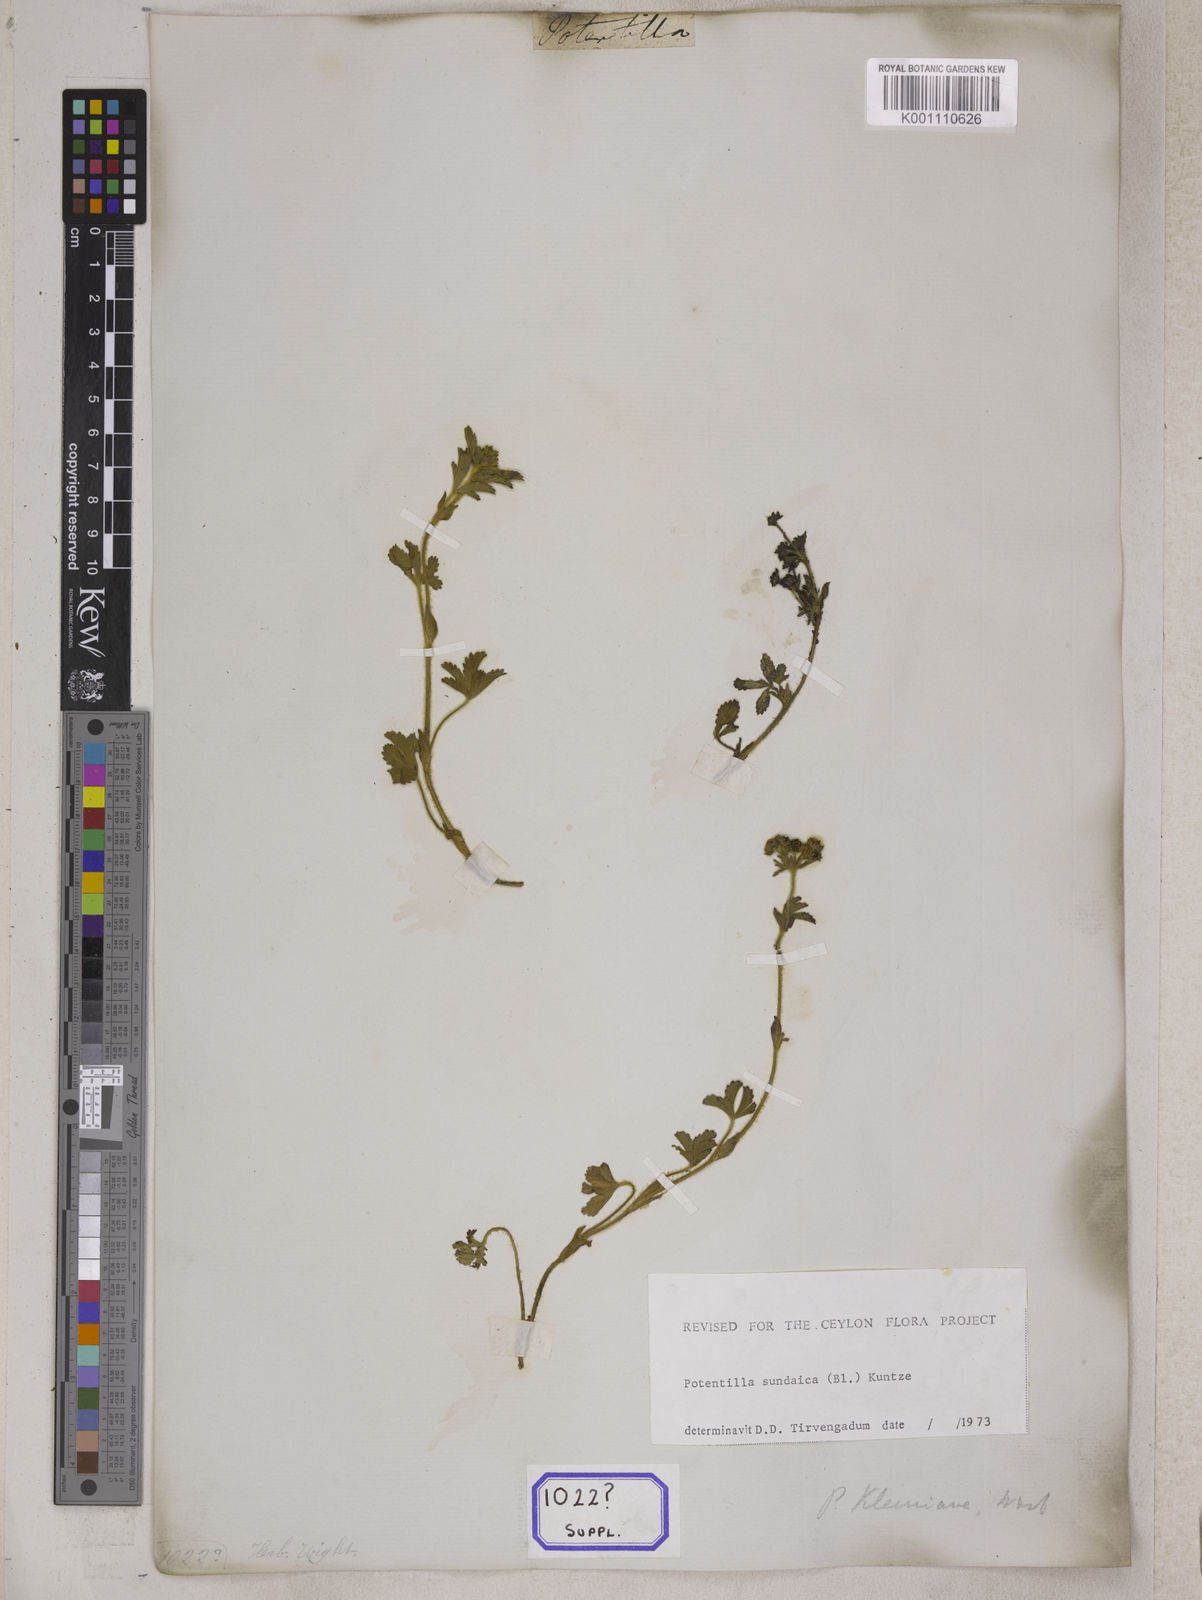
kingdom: Plantae
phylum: Tracheophyta
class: Magnoliopsida
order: Rosales
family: Rosaceae
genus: Potentilla
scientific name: Potentilla
